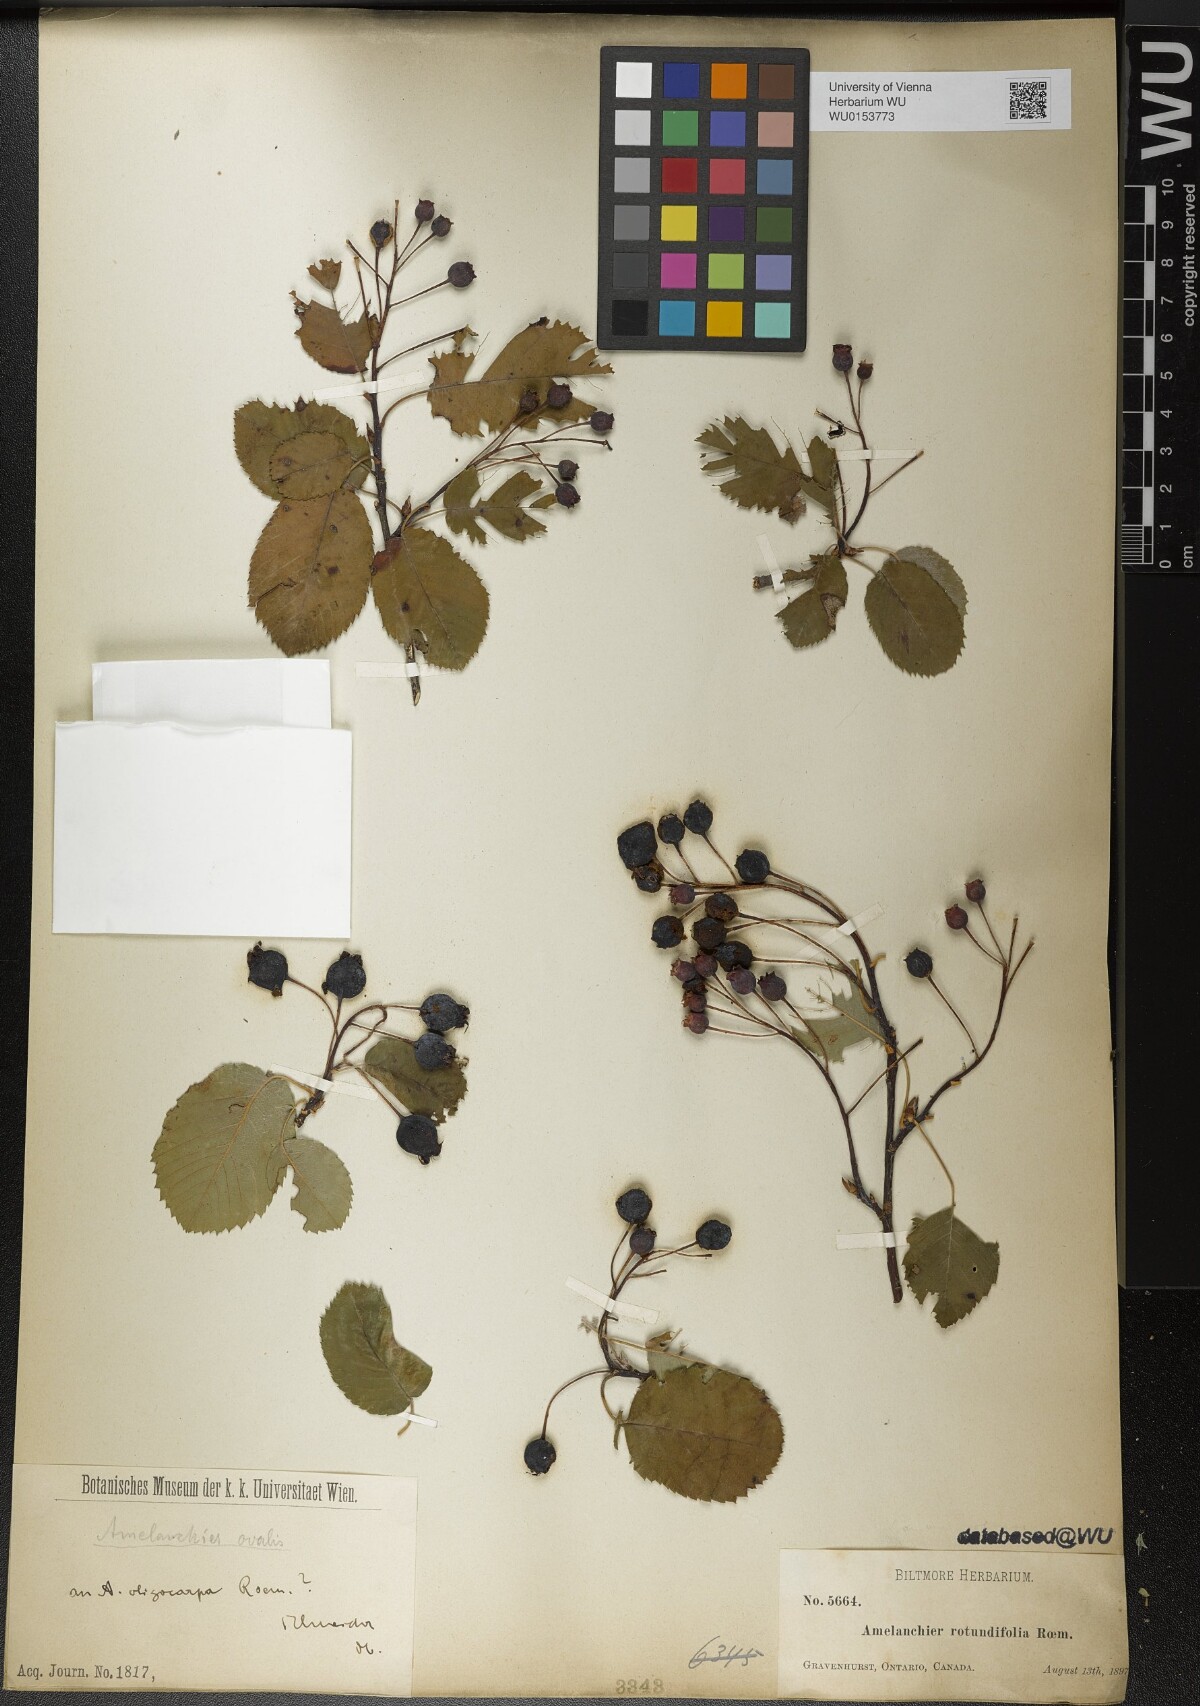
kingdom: Plantae
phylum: Tracheophyta
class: Magnoliopsida
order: Rosales
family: Rosaceae
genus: Amelanchier
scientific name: Amelanchier ovalis
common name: Serviceberry
